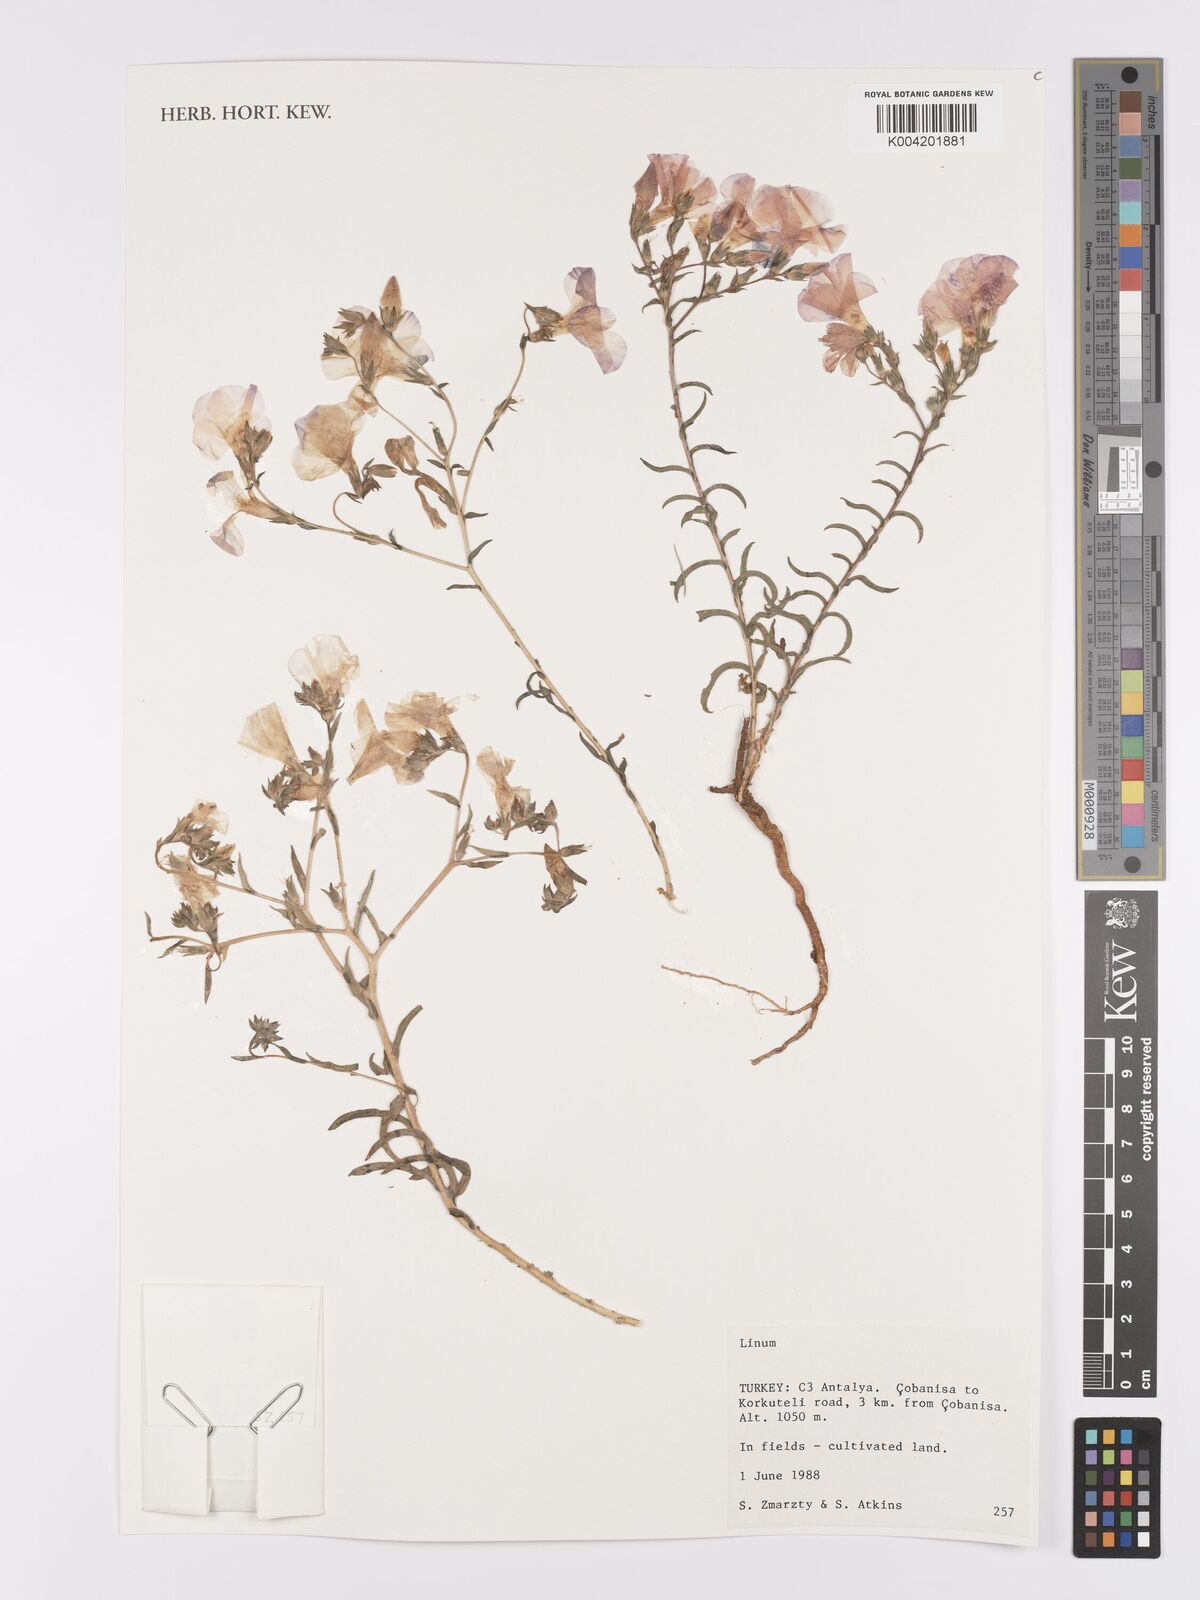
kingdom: Plantae
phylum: Tracheophyta
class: Magnoliopsida
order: Malpighiales
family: Linaceae
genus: Linum
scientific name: Linum
